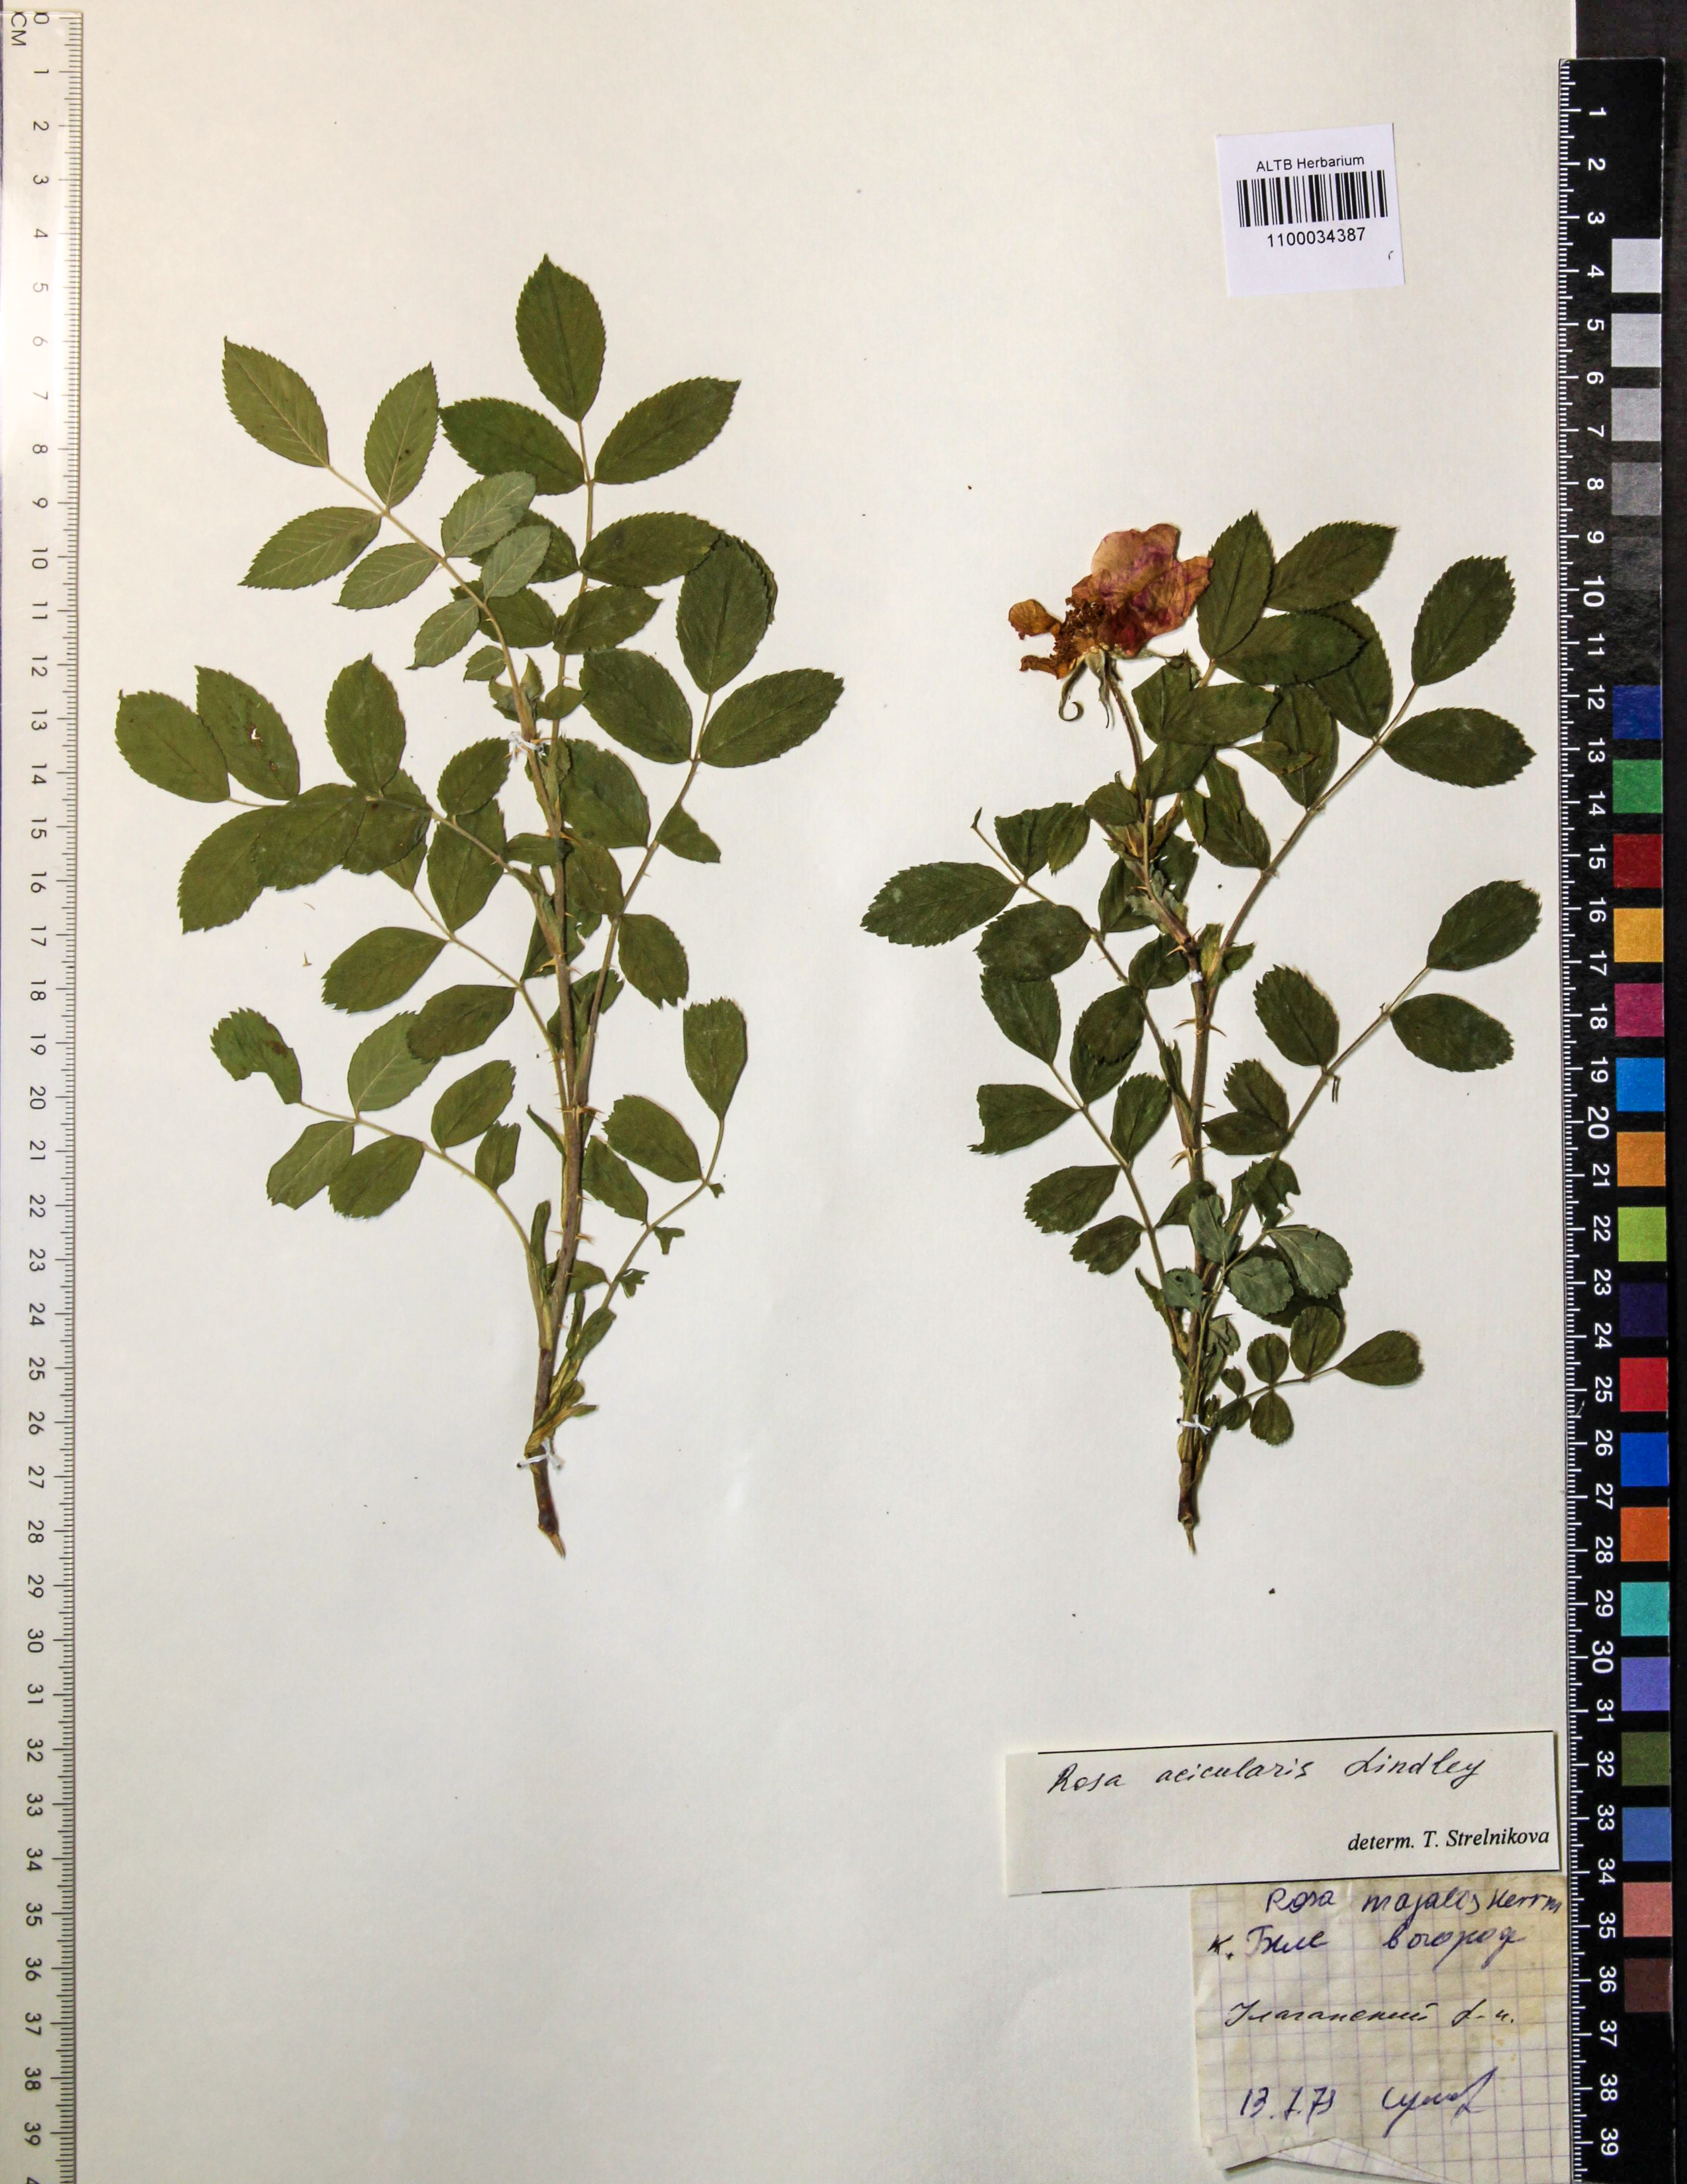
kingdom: Plantae
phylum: Tracheophyta
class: Magnoliopsida
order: Rosales
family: Rosaceae
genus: Rosa
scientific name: Rosa acicularis
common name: Prickly rose
